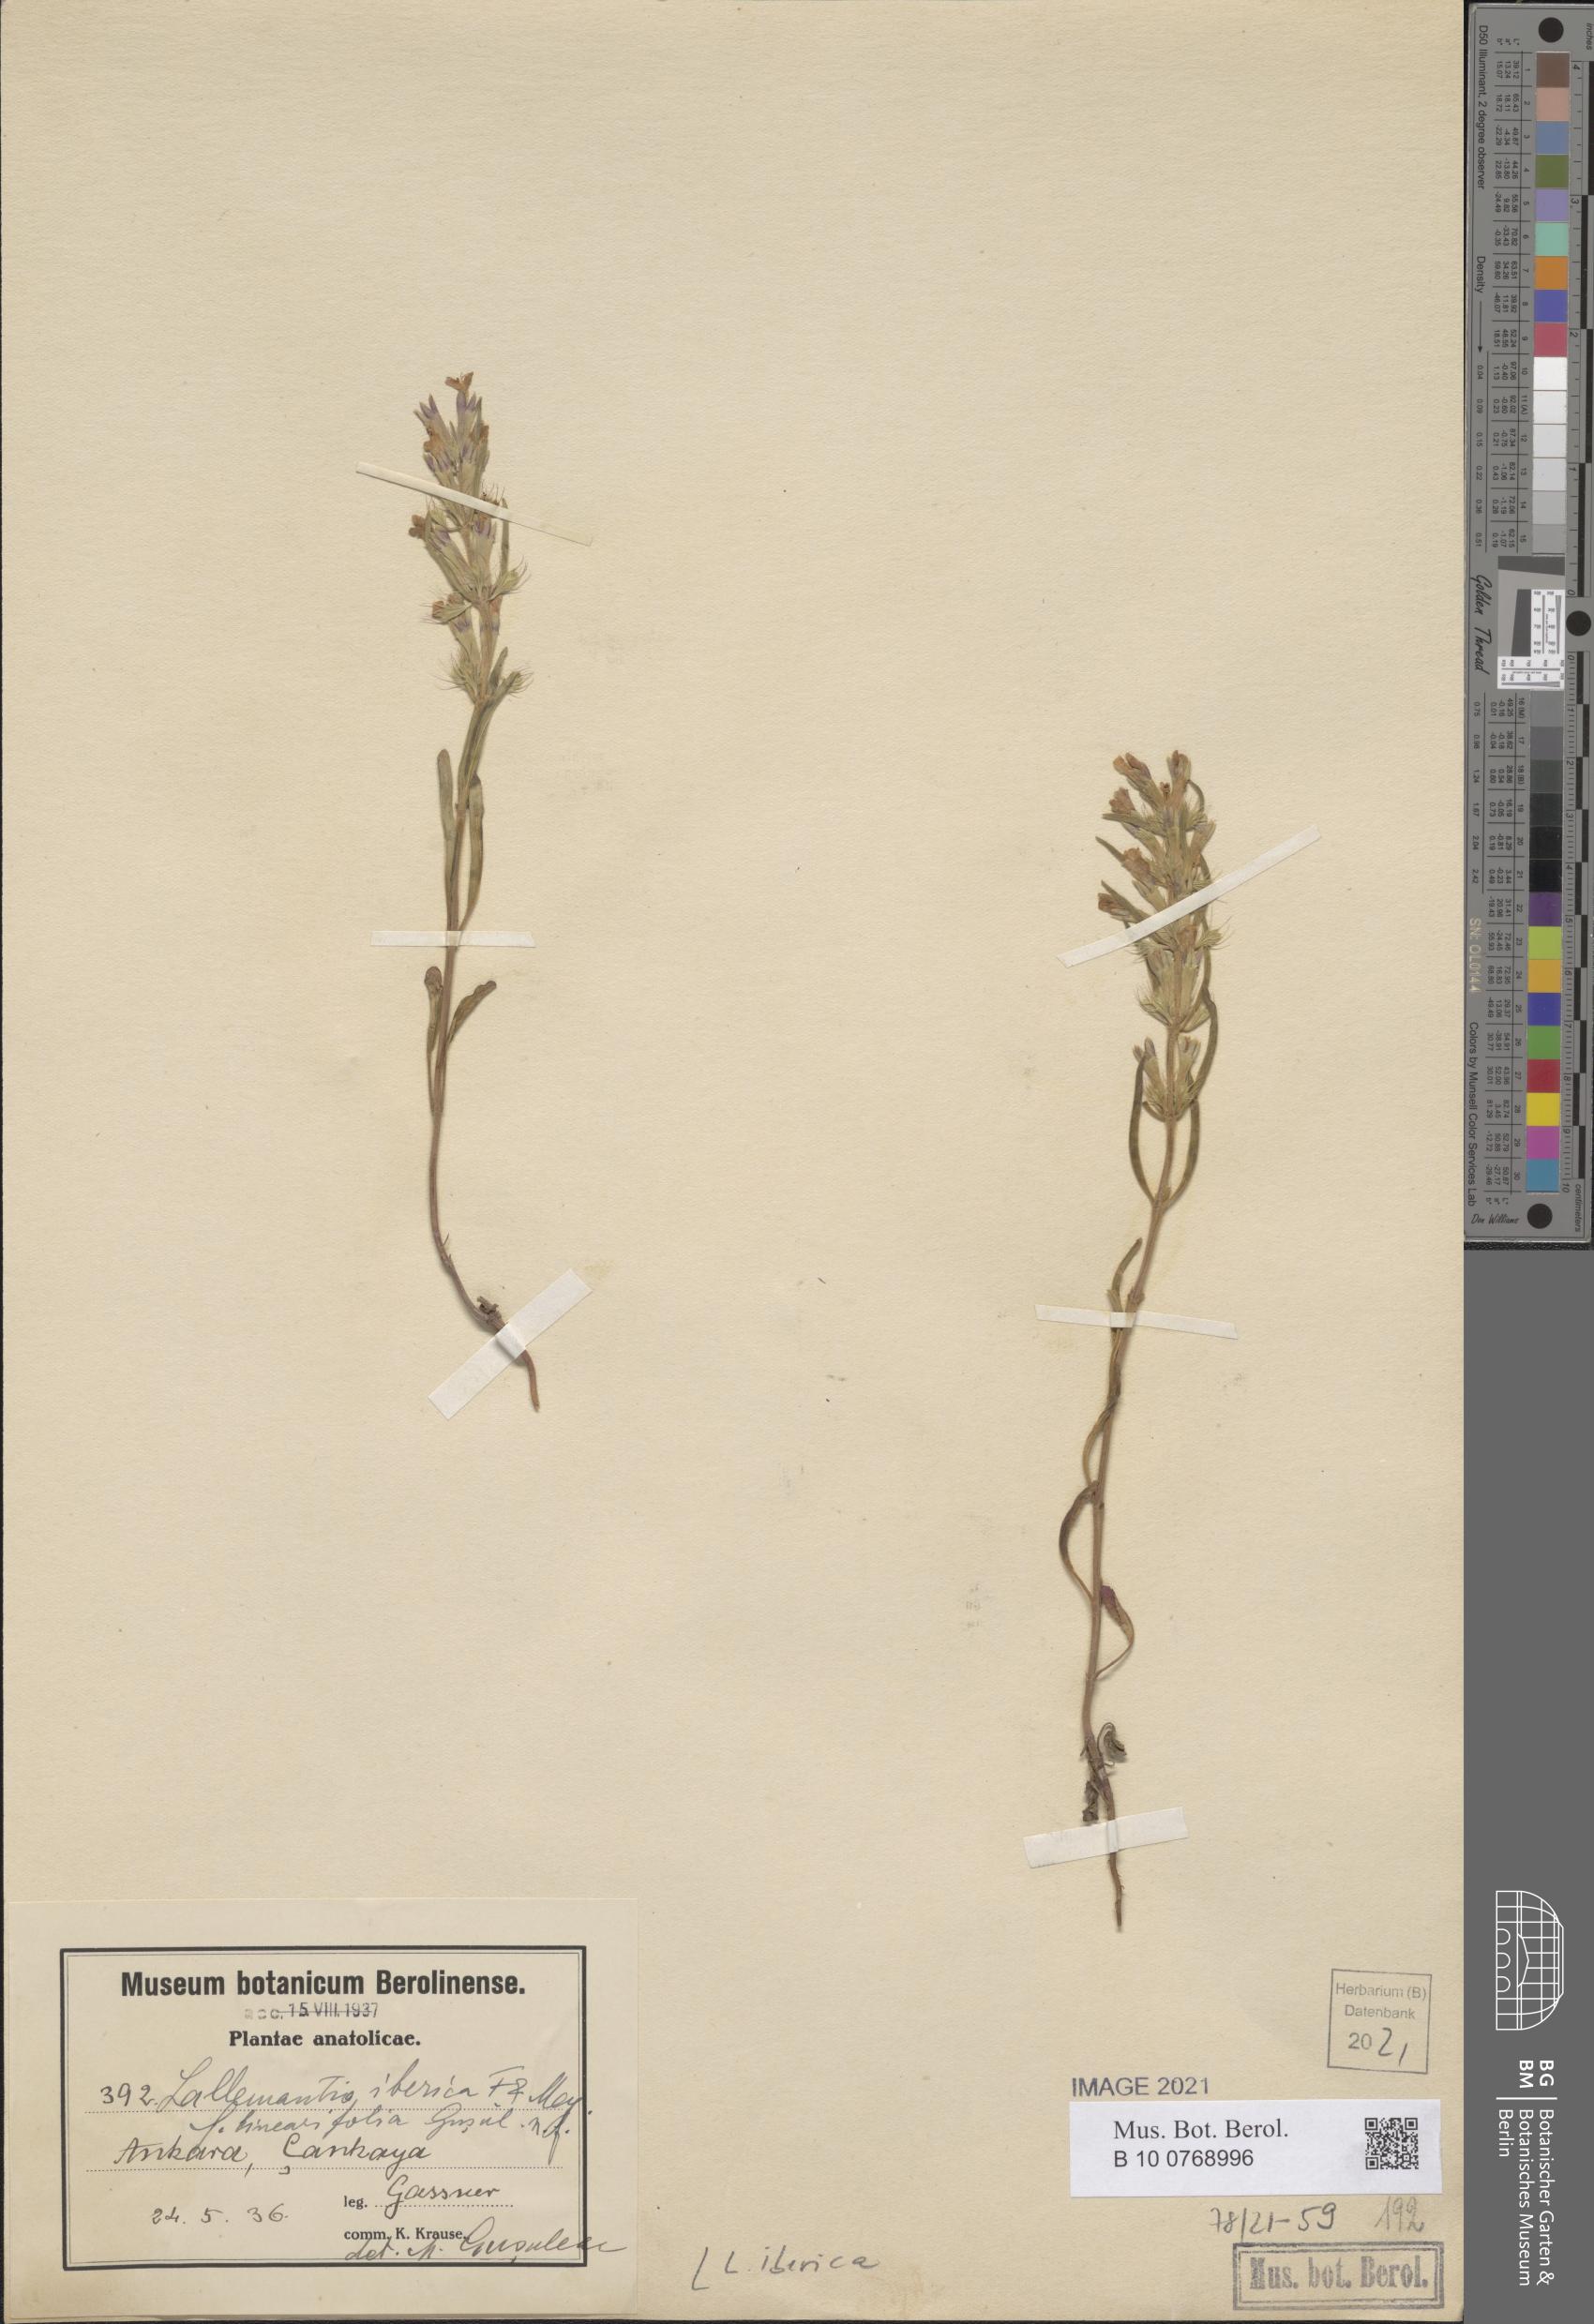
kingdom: Plantae
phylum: Tracheophyta
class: Magnoliopsida
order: Lamiales
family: Lamiaceae
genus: Lallemantia
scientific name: Lallemantia iberica
